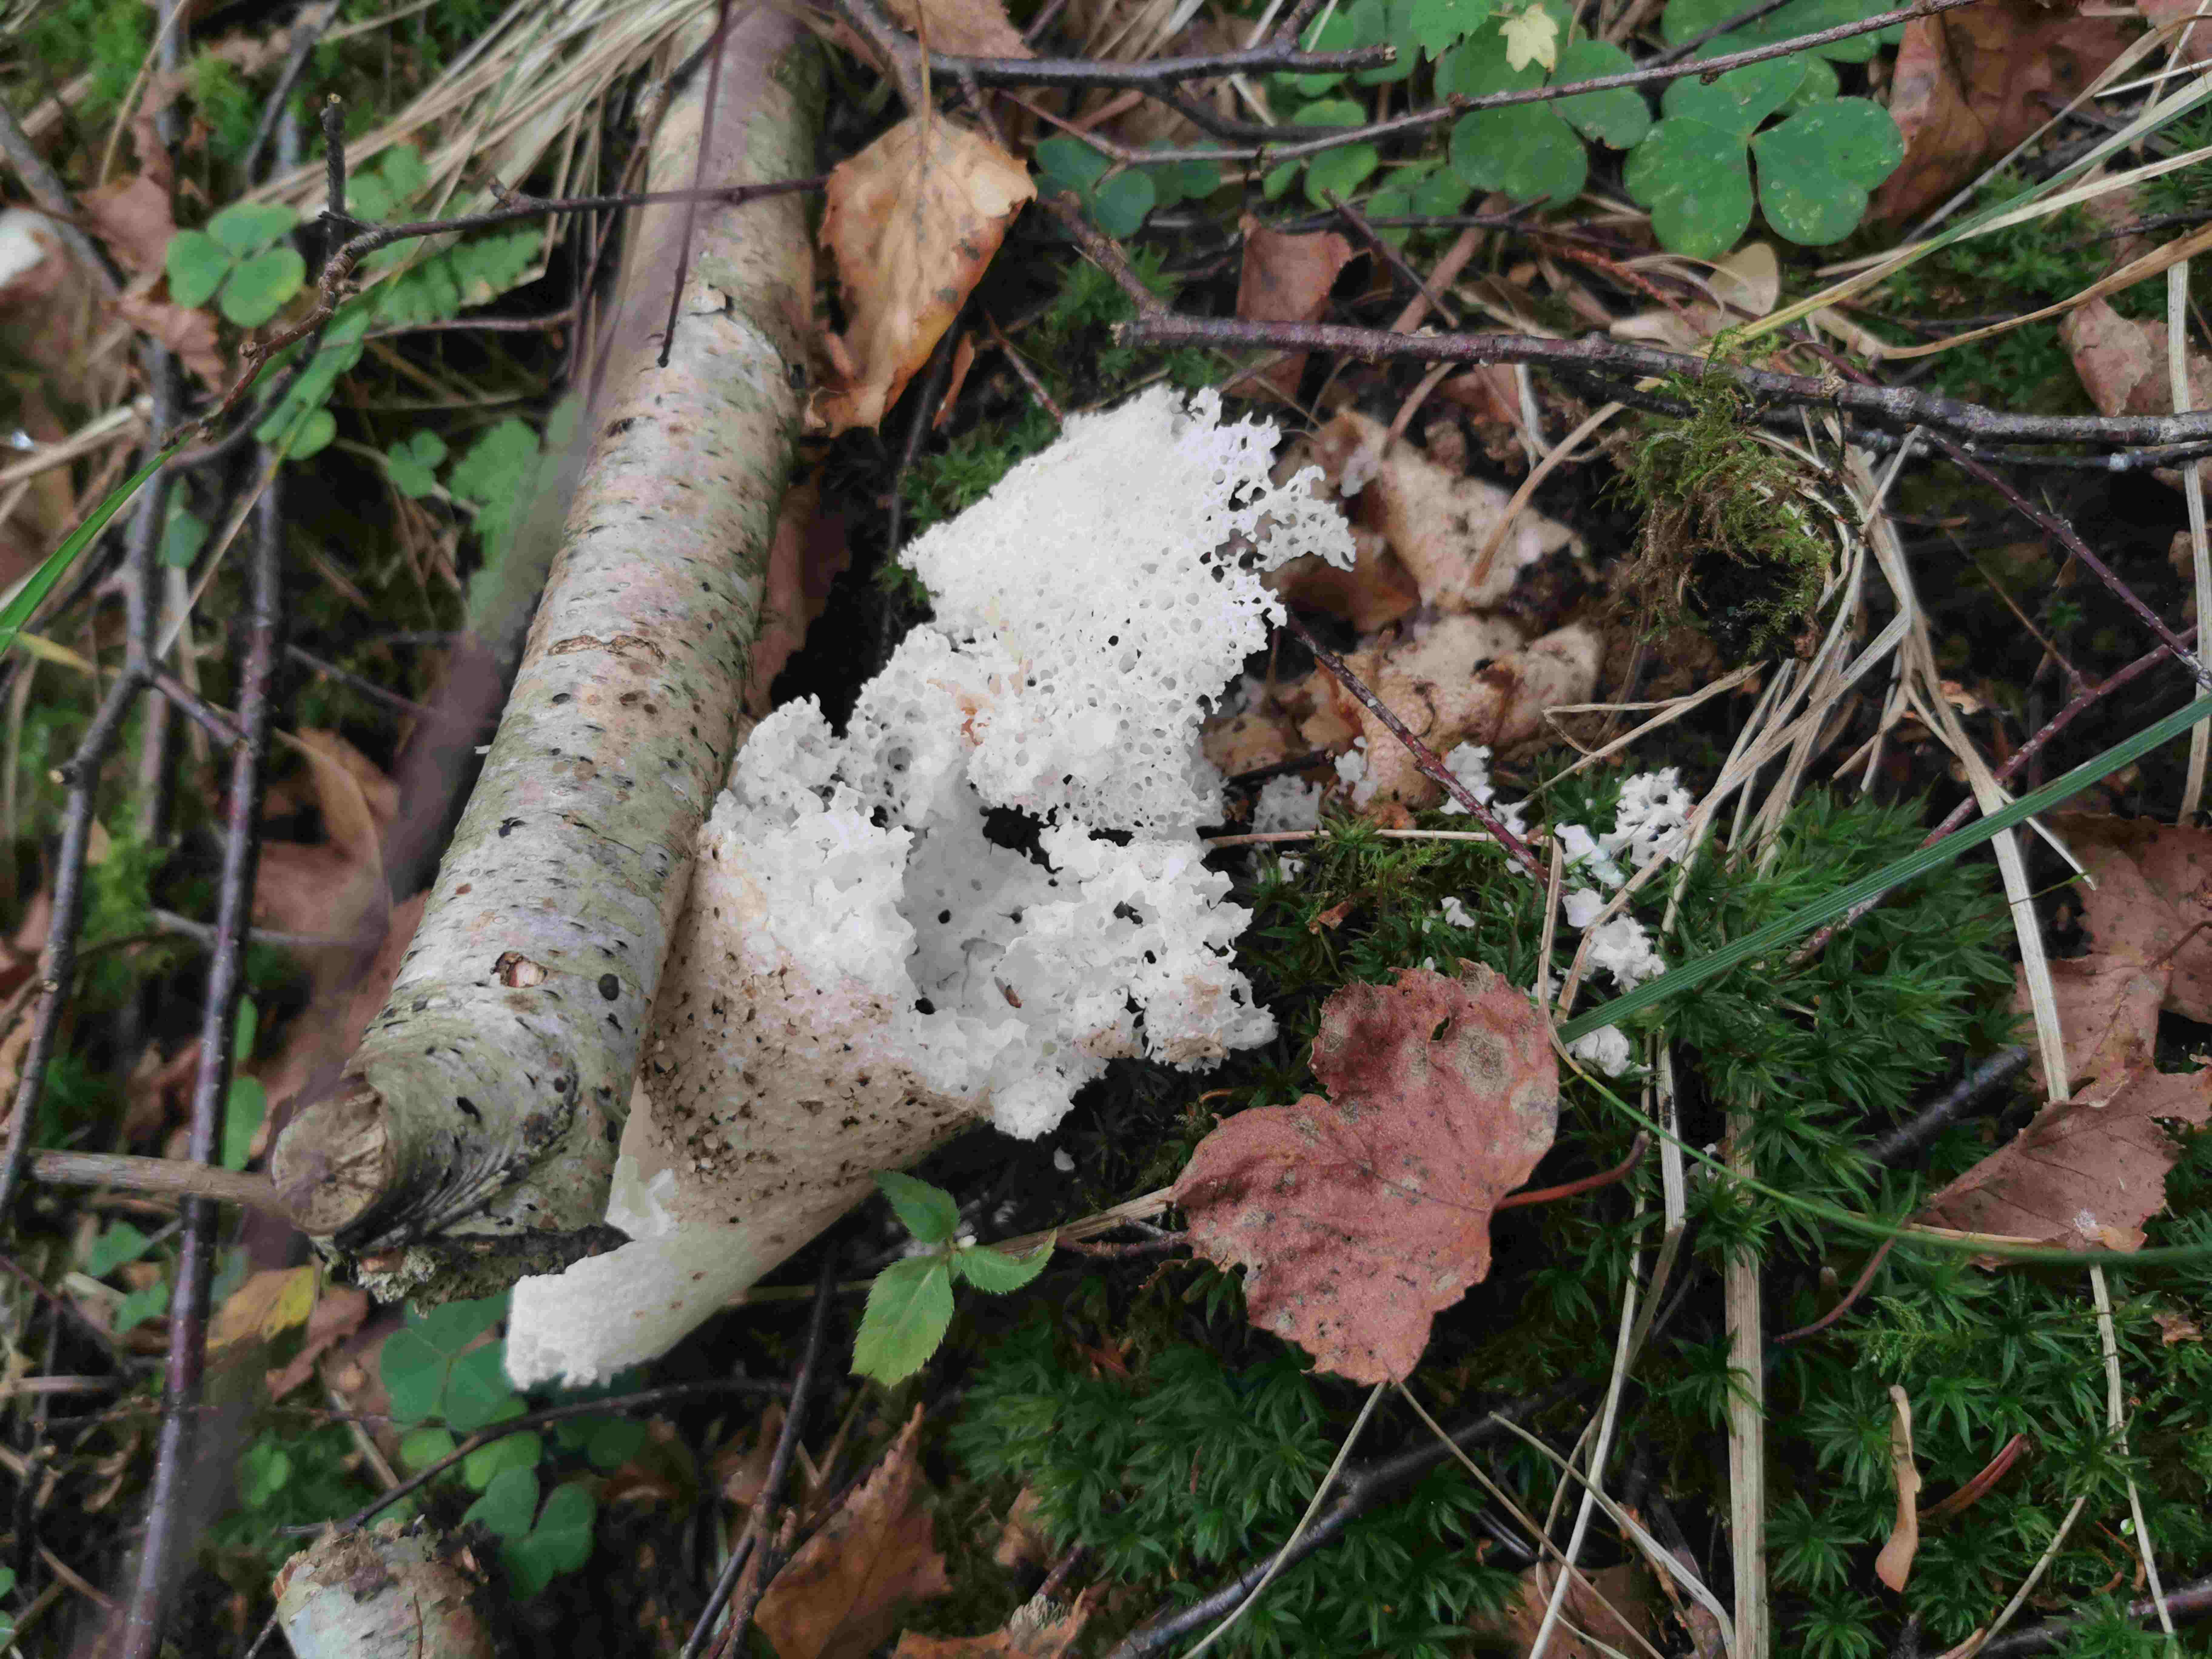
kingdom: Fungi
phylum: Basidiomycota
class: Agaricomycetes
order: Phallales
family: Phallaceae
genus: Phallus
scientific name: Phallus impudicus
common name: almindelig stinksvamp
